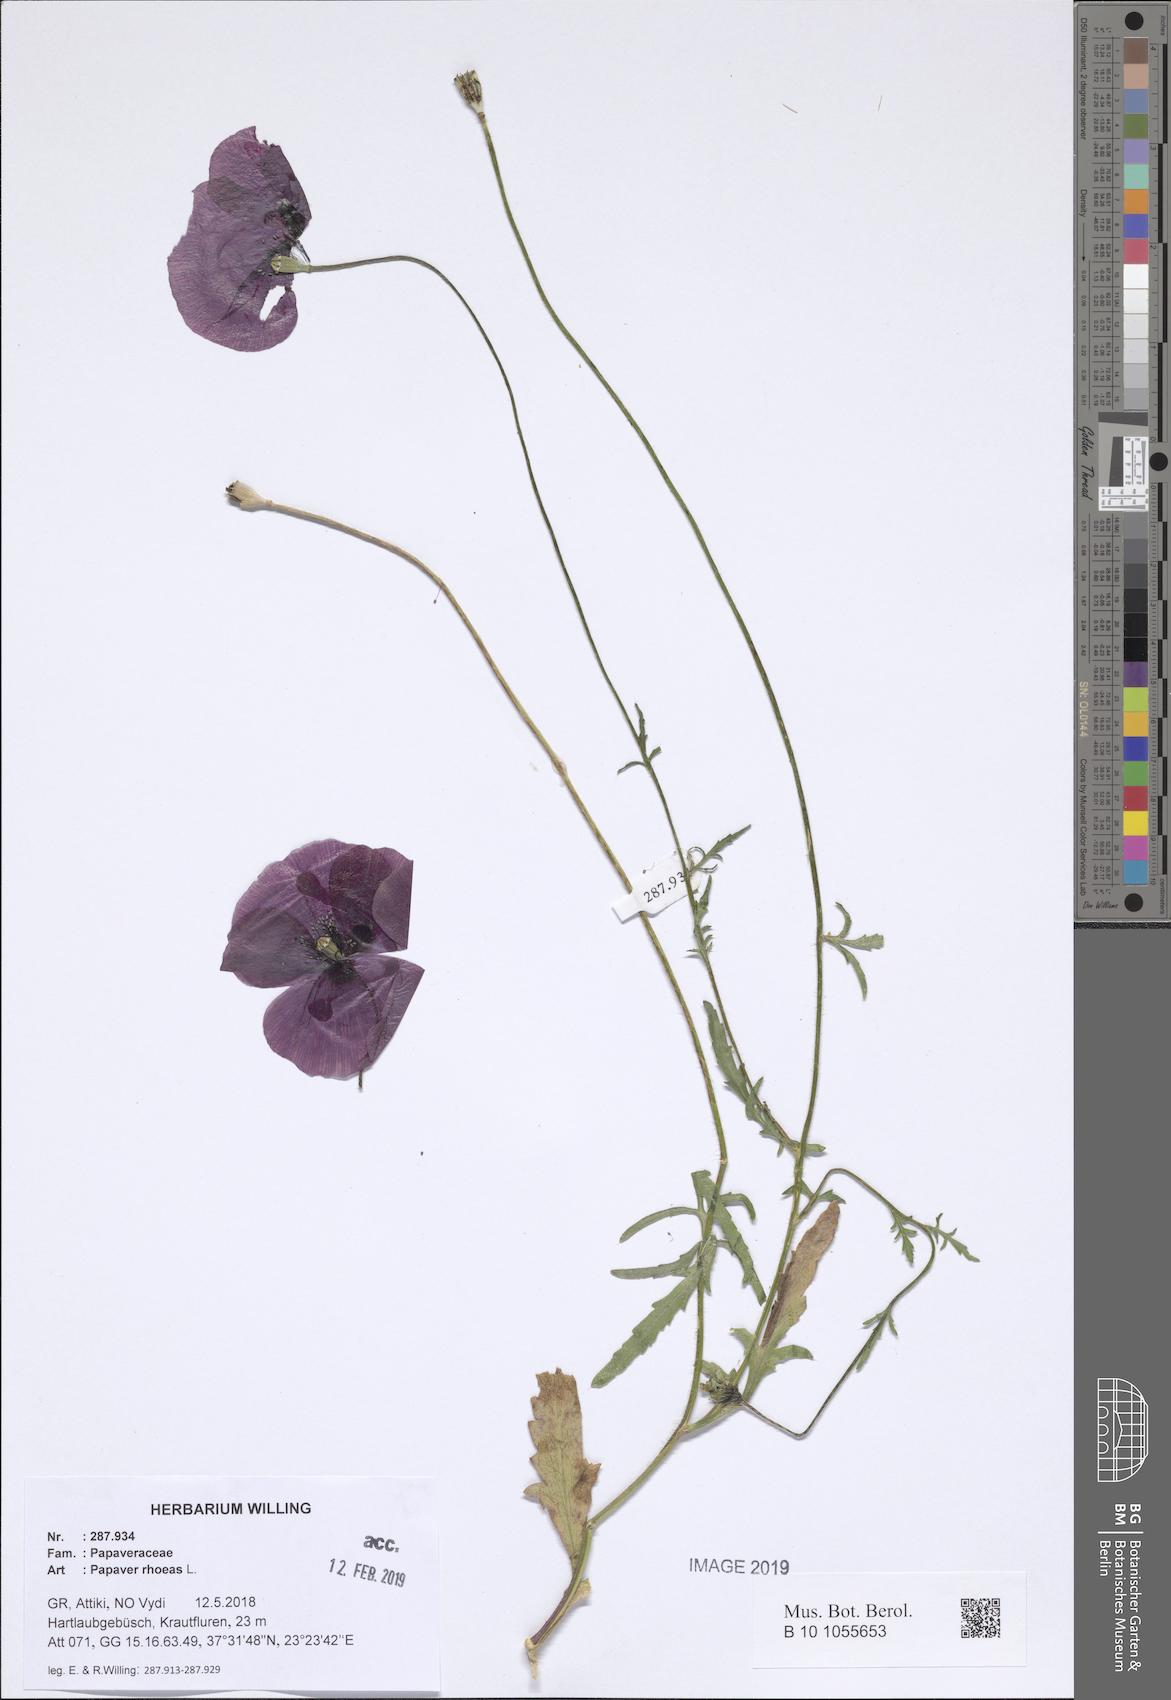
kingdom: Plantae
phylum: Tracheophyta
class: Magnoliopsida
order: Ranunculales
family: Papaveraceae
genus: Papaver
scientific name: Papaver rhoeas
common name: Corn poppy
